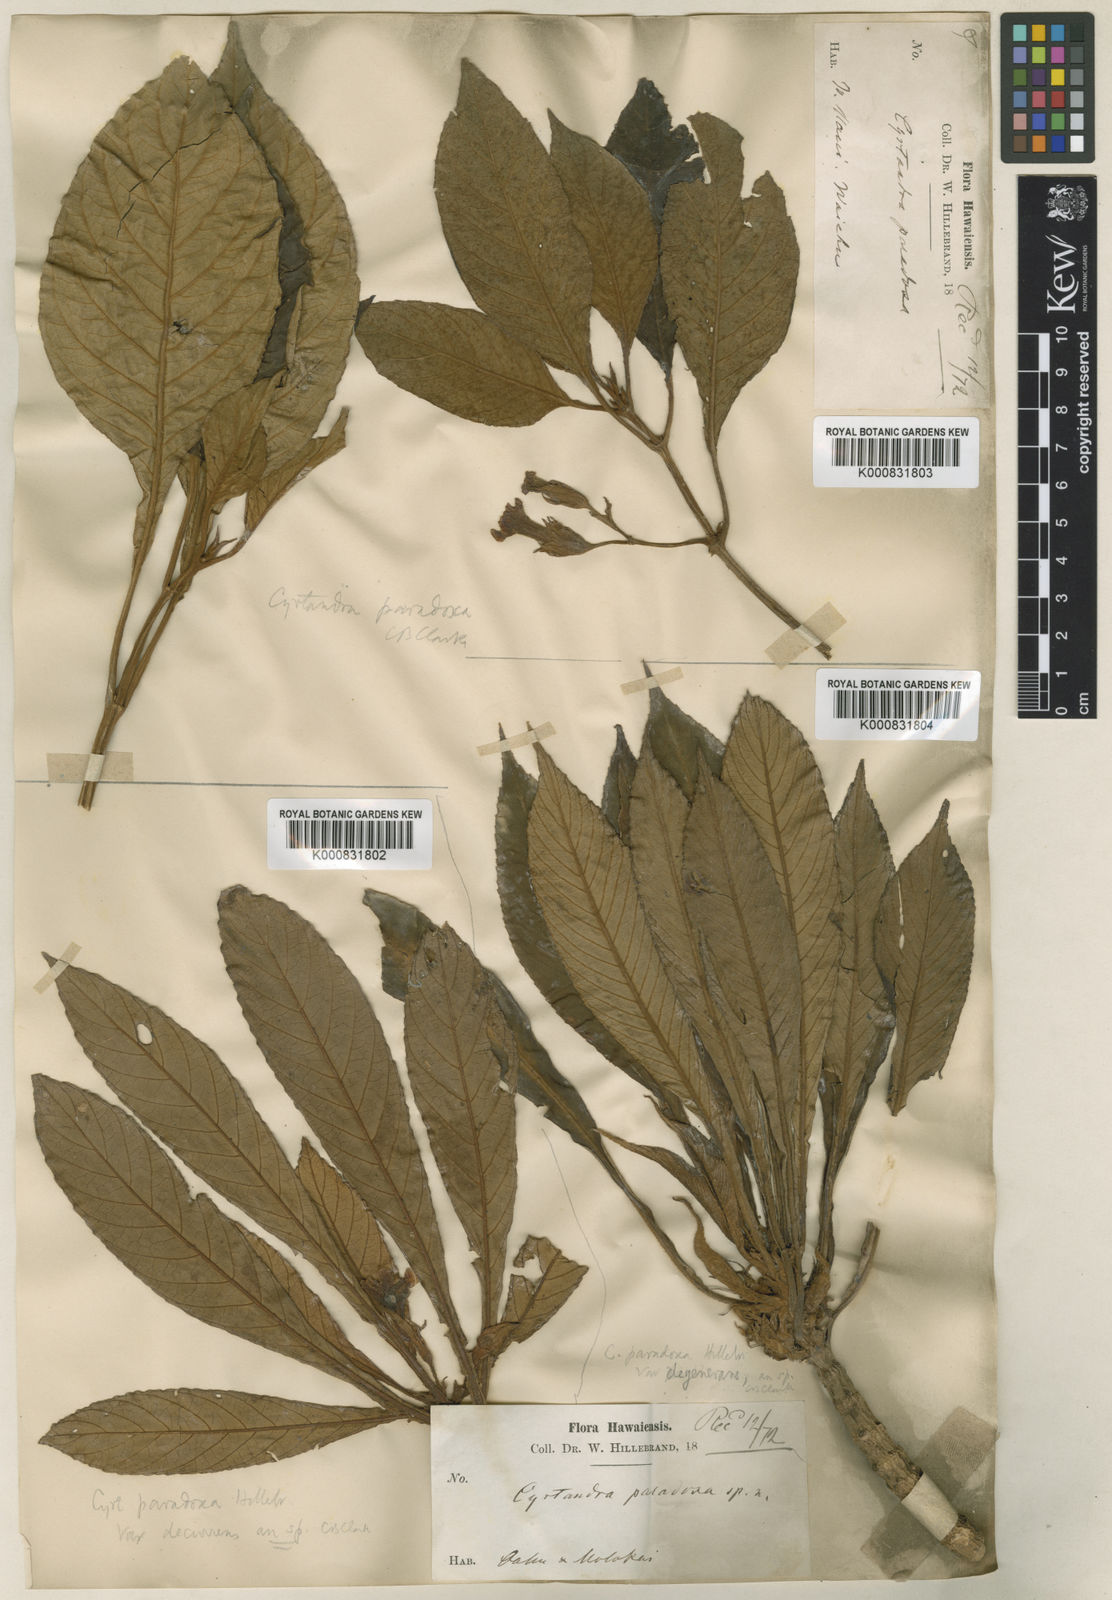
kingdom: Plantae
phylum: Tracheophyta
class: Magnoliopsida
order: Lamiales
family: Gesneriaceae
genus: Cyrtandra
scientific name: Cyrtandra longifolia
